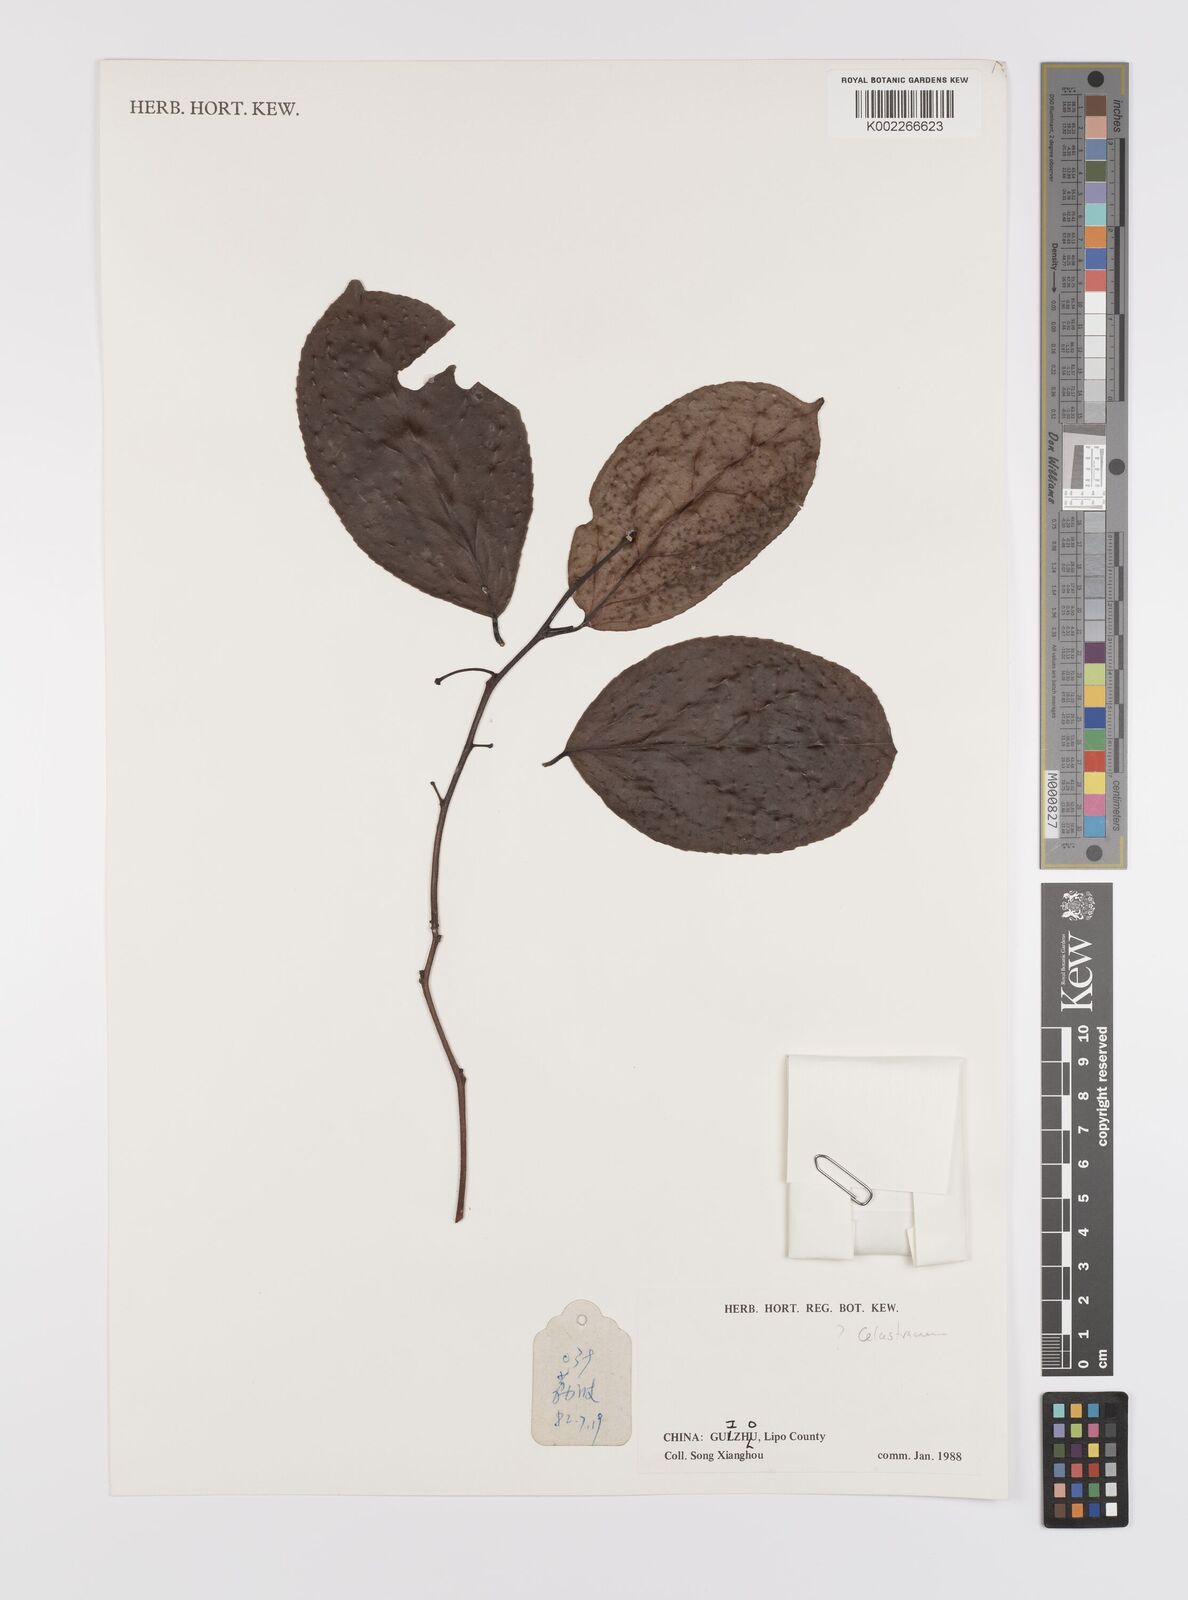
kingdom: Plantae
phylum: Tracheophyta
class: Magnoliopsida
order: Celastrales
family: Celastraceae
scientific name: Celastraceae
